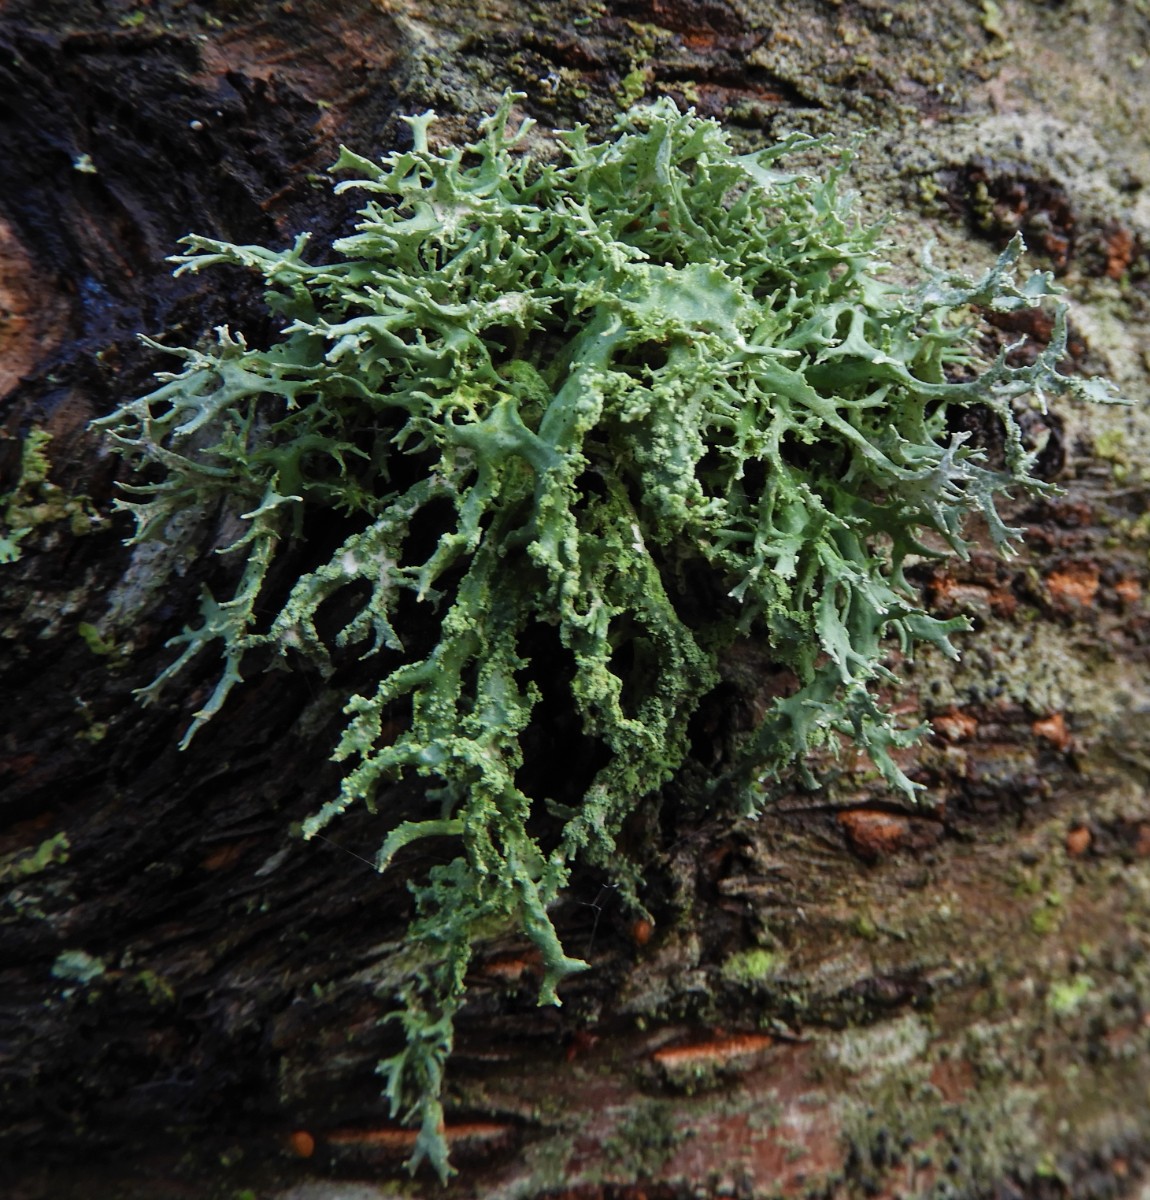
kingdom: Fungi
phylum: Ascomycota
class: Lecanoromycetes
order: Lecanorales
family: Parmeliaceae
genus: Evernia
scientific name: Evernia prunastri
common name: almindelig slåenlav
